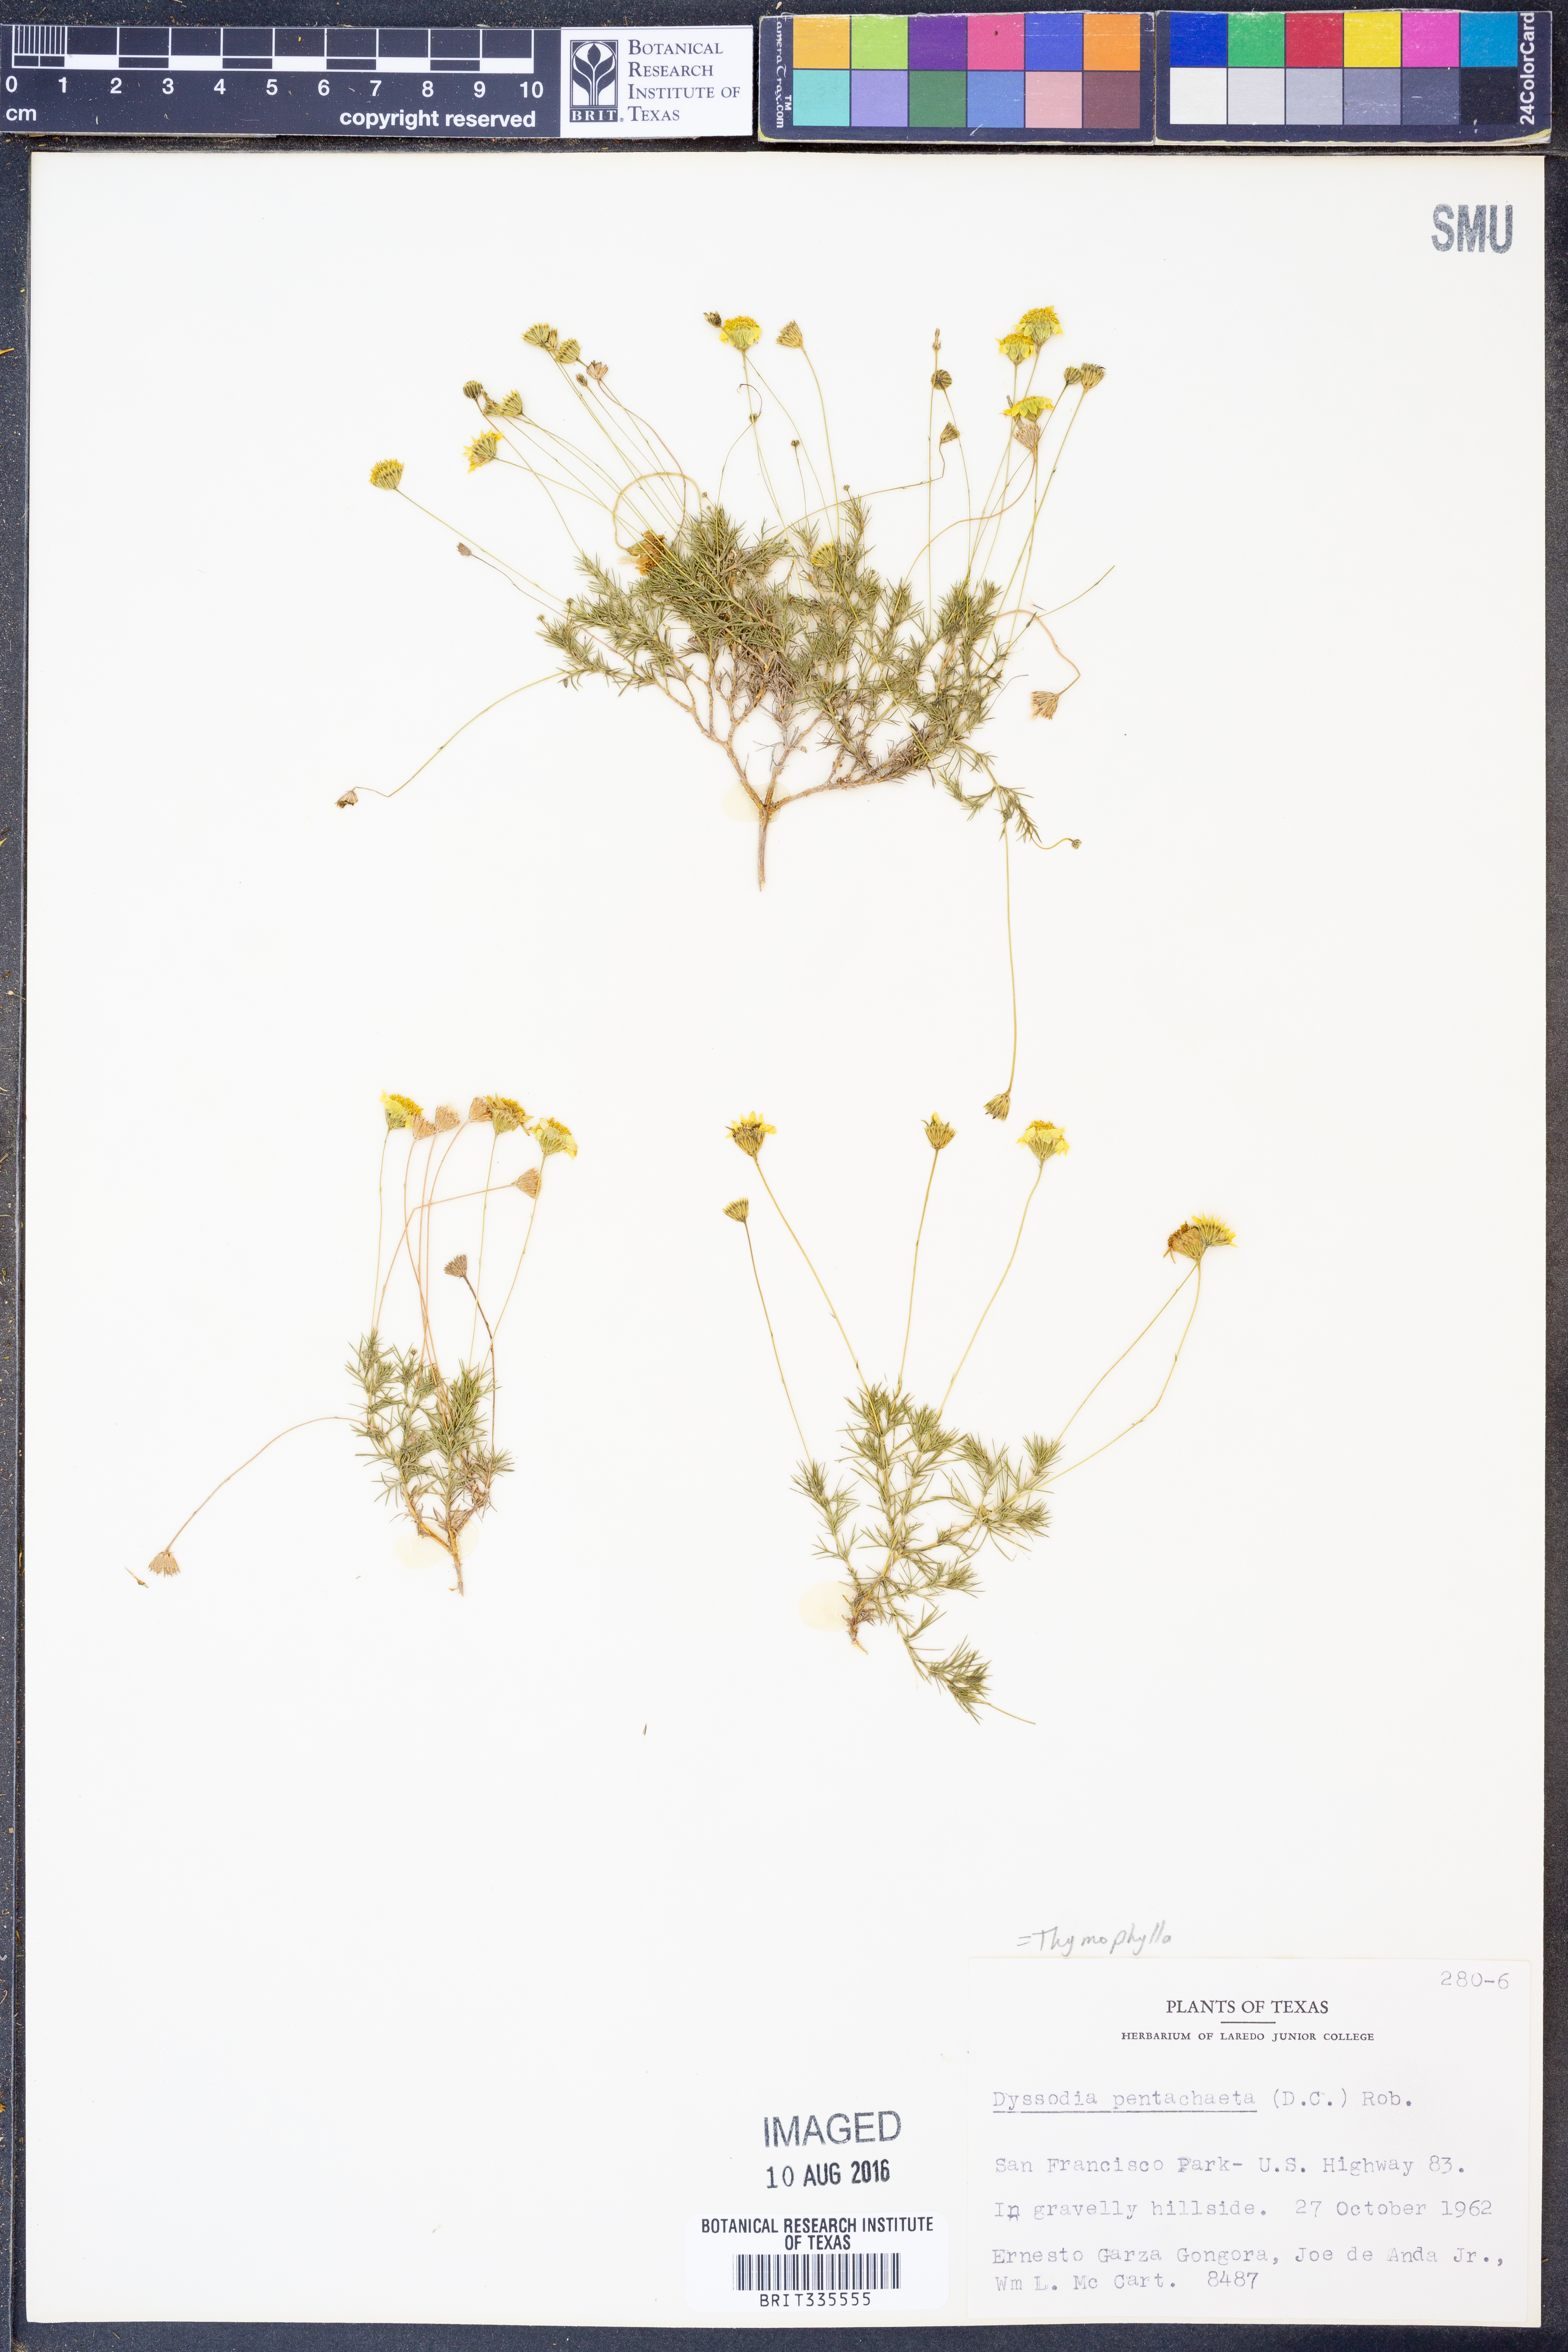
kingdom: Plantae
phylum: Tracheophyta
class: Magnoliopsida
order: Asterales
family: Asteraceae
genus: Thymophylla
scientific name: Thymophylla pentachaeta
